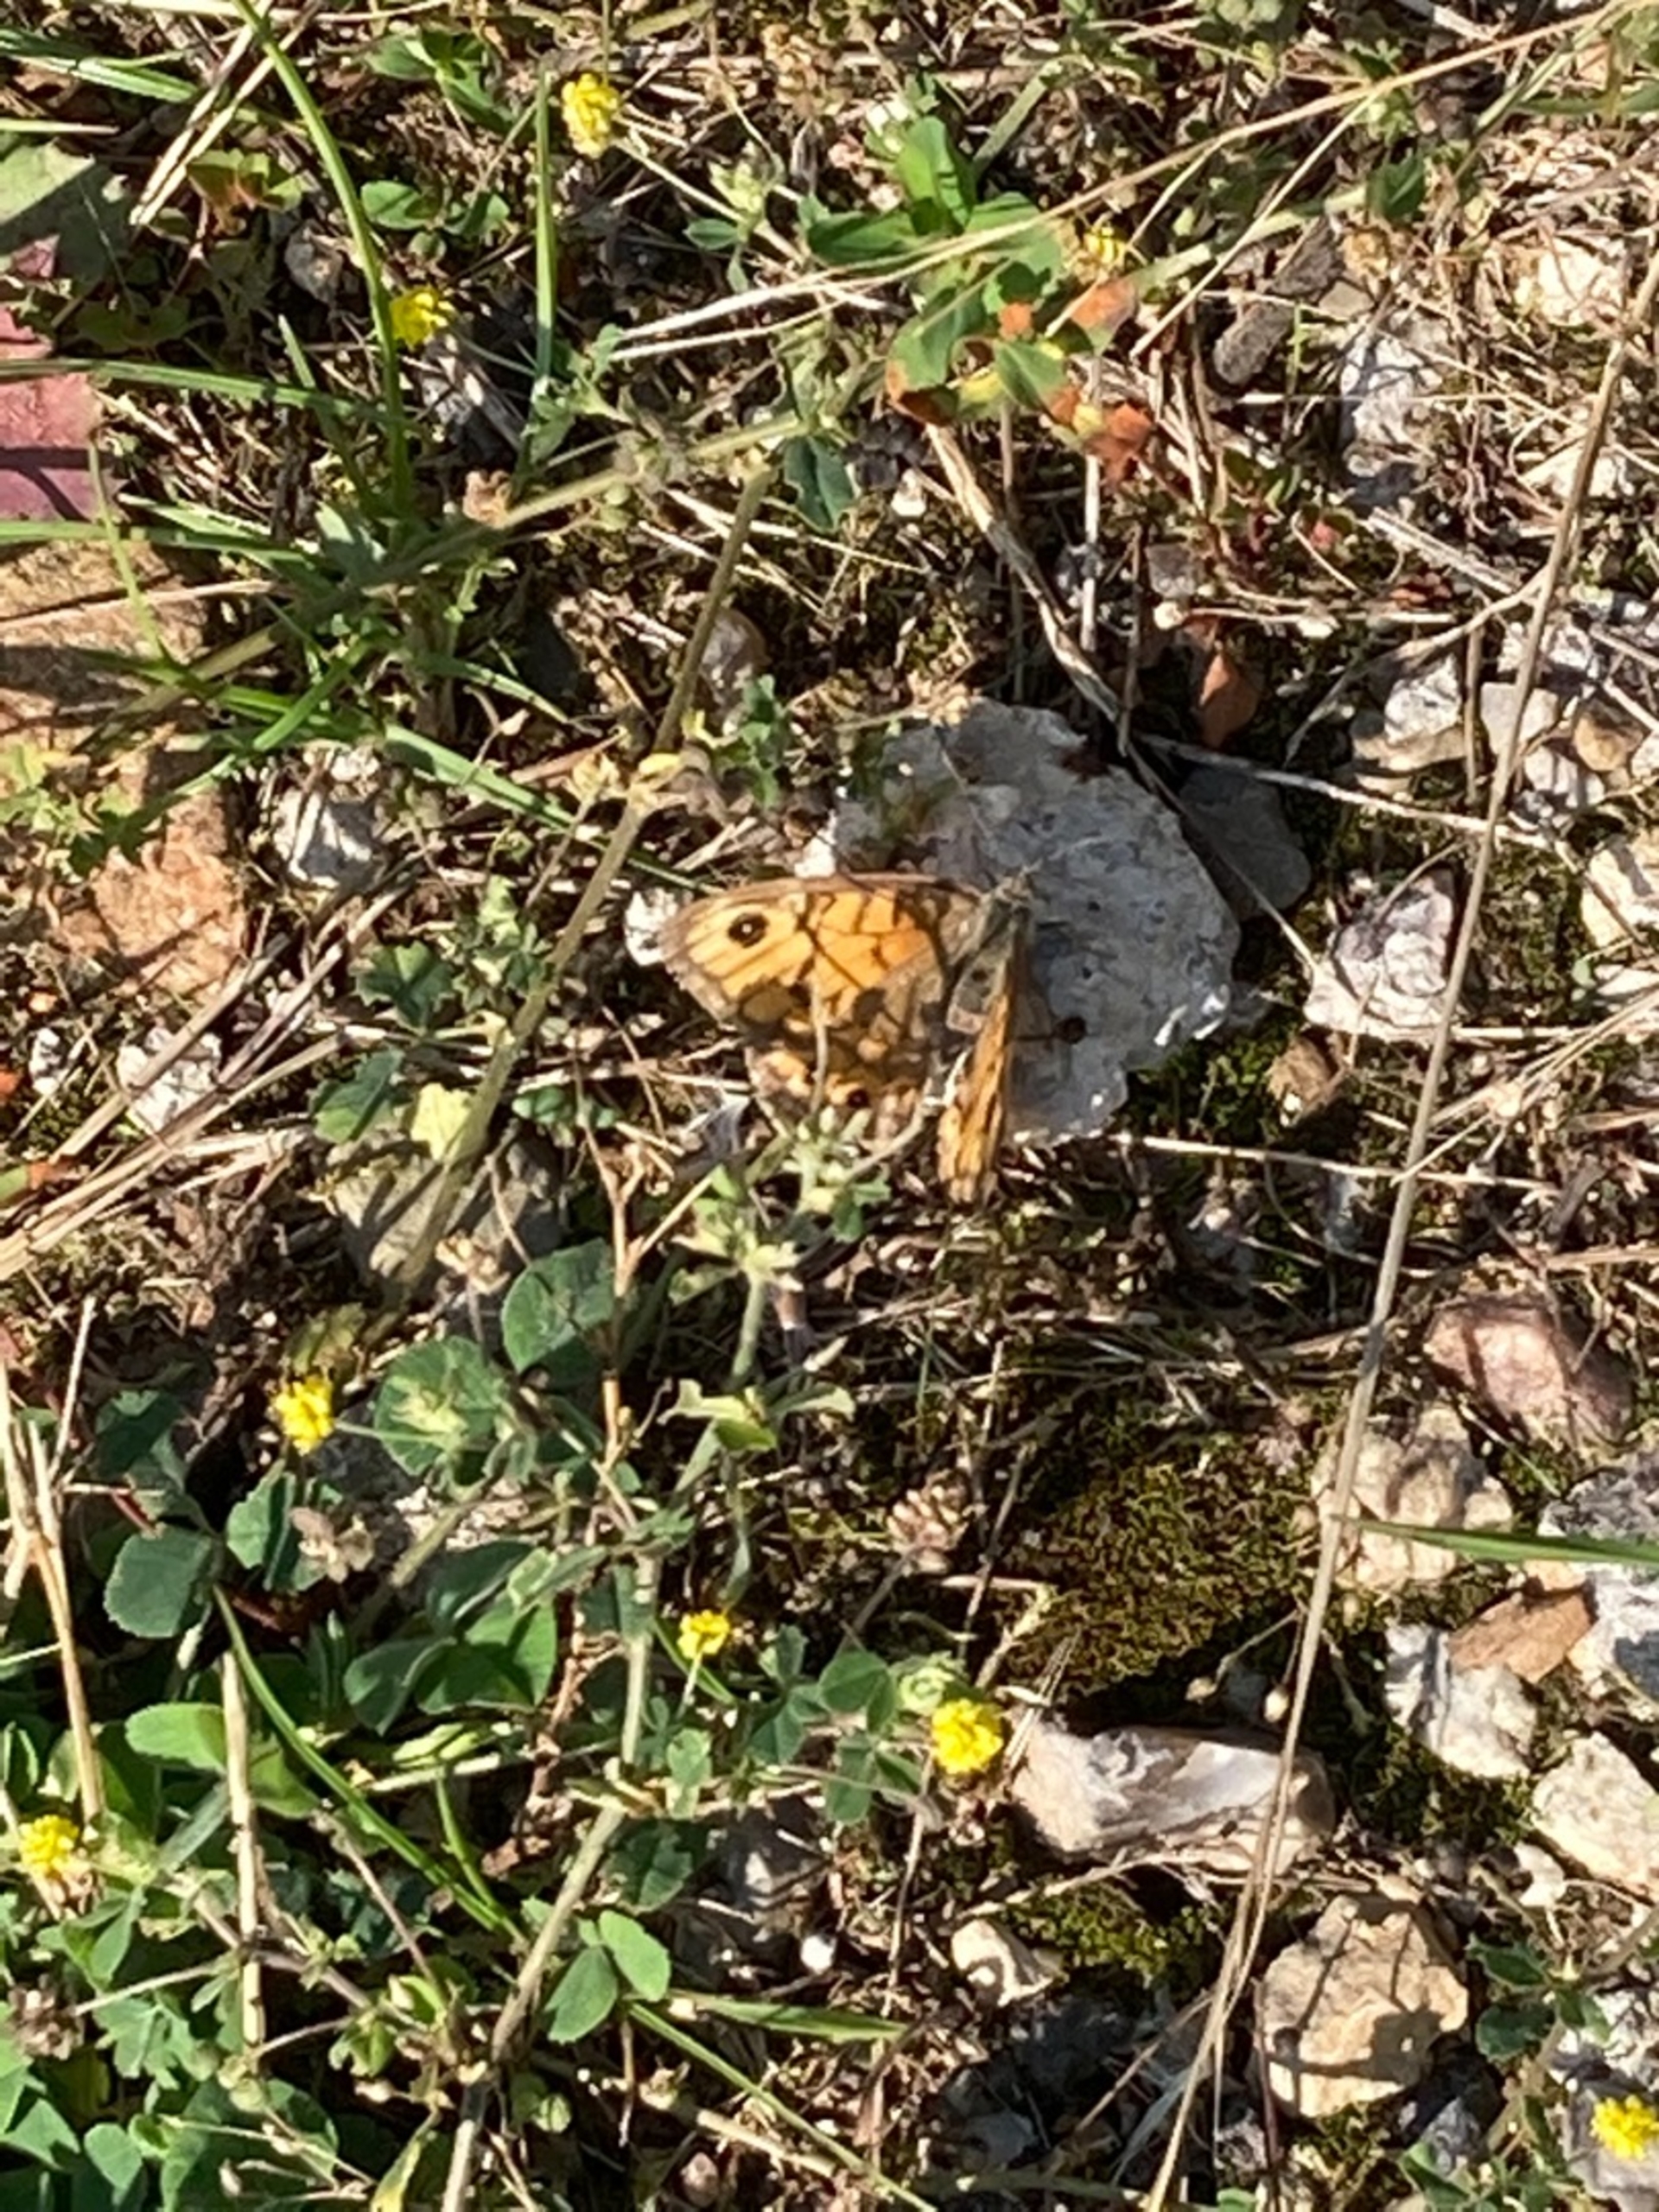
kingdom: Animalia
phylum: Arthropoda
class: Insecta
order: Lepidoptera
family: Nymphalidae
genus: Pararge
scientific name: Pararge Lasiommata megera
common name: Vejrandøje
